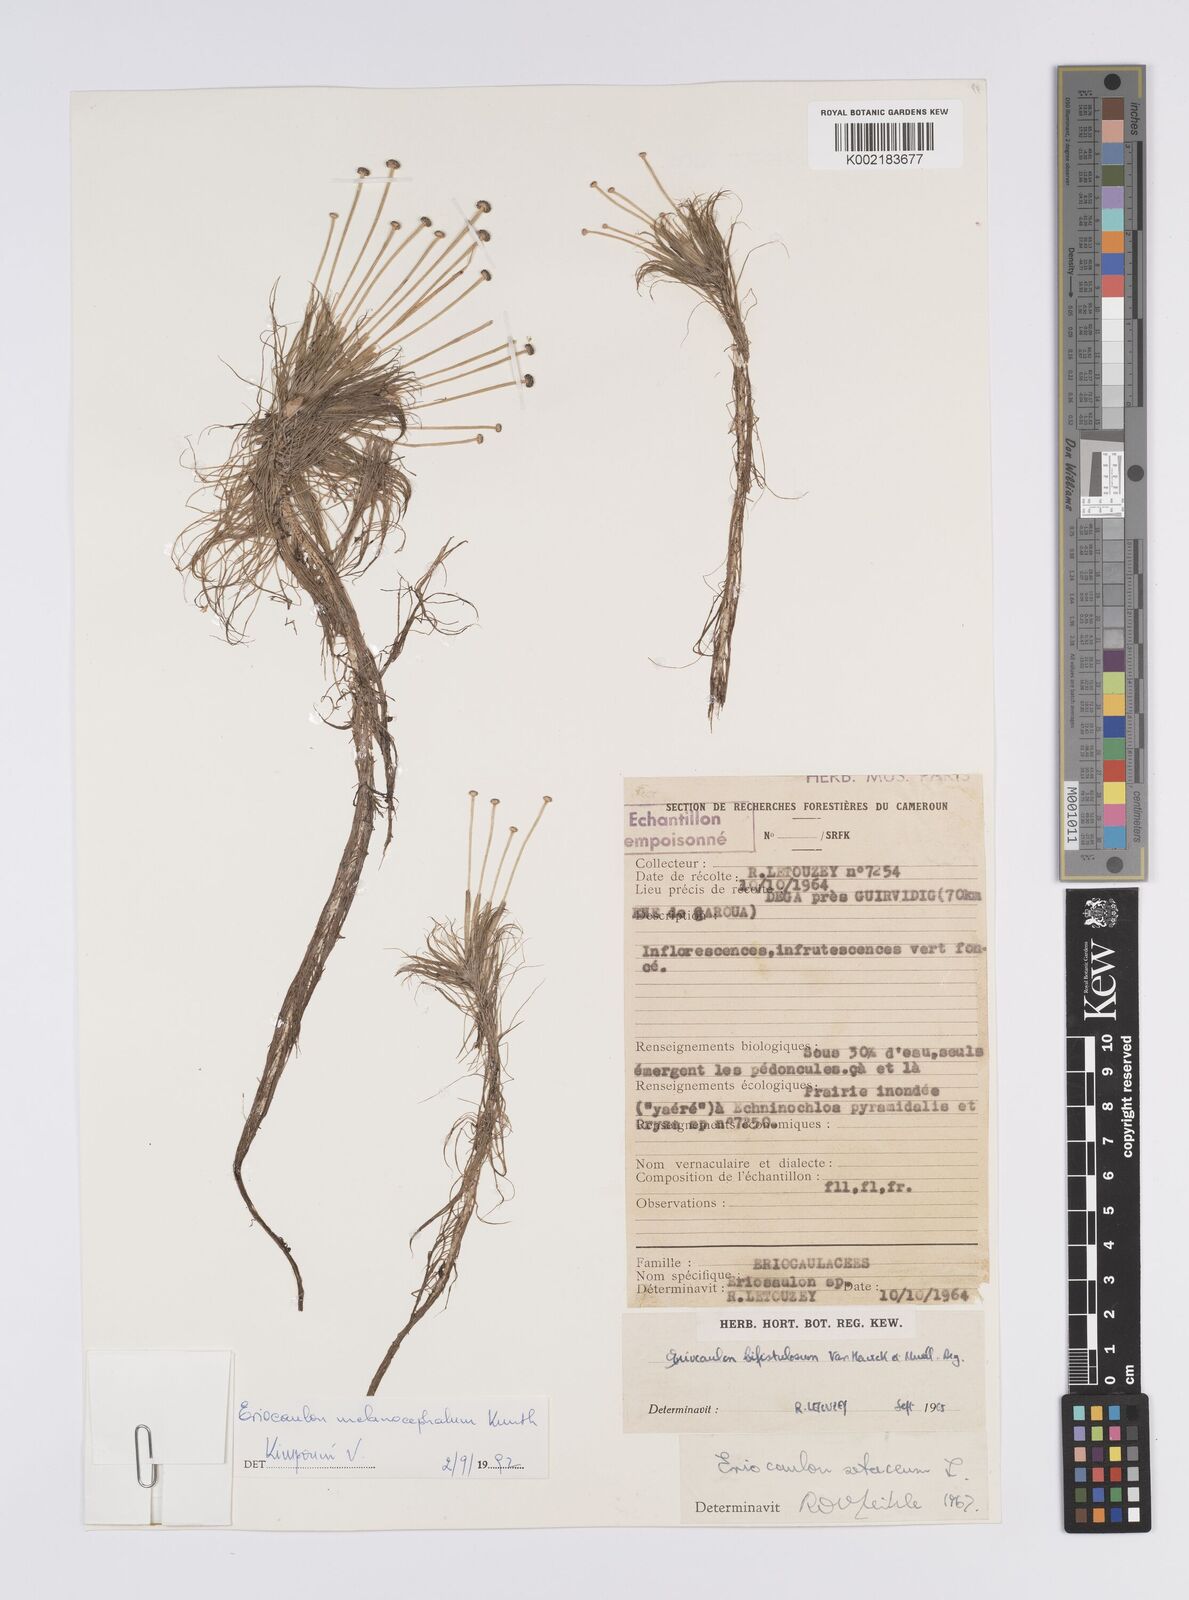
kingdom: Plantae
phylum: Tracheophyta
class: Liliopsida
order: Poales
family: Eriocaulaceae
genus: Eriocaulon
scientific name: Eriocaulon setaceum
